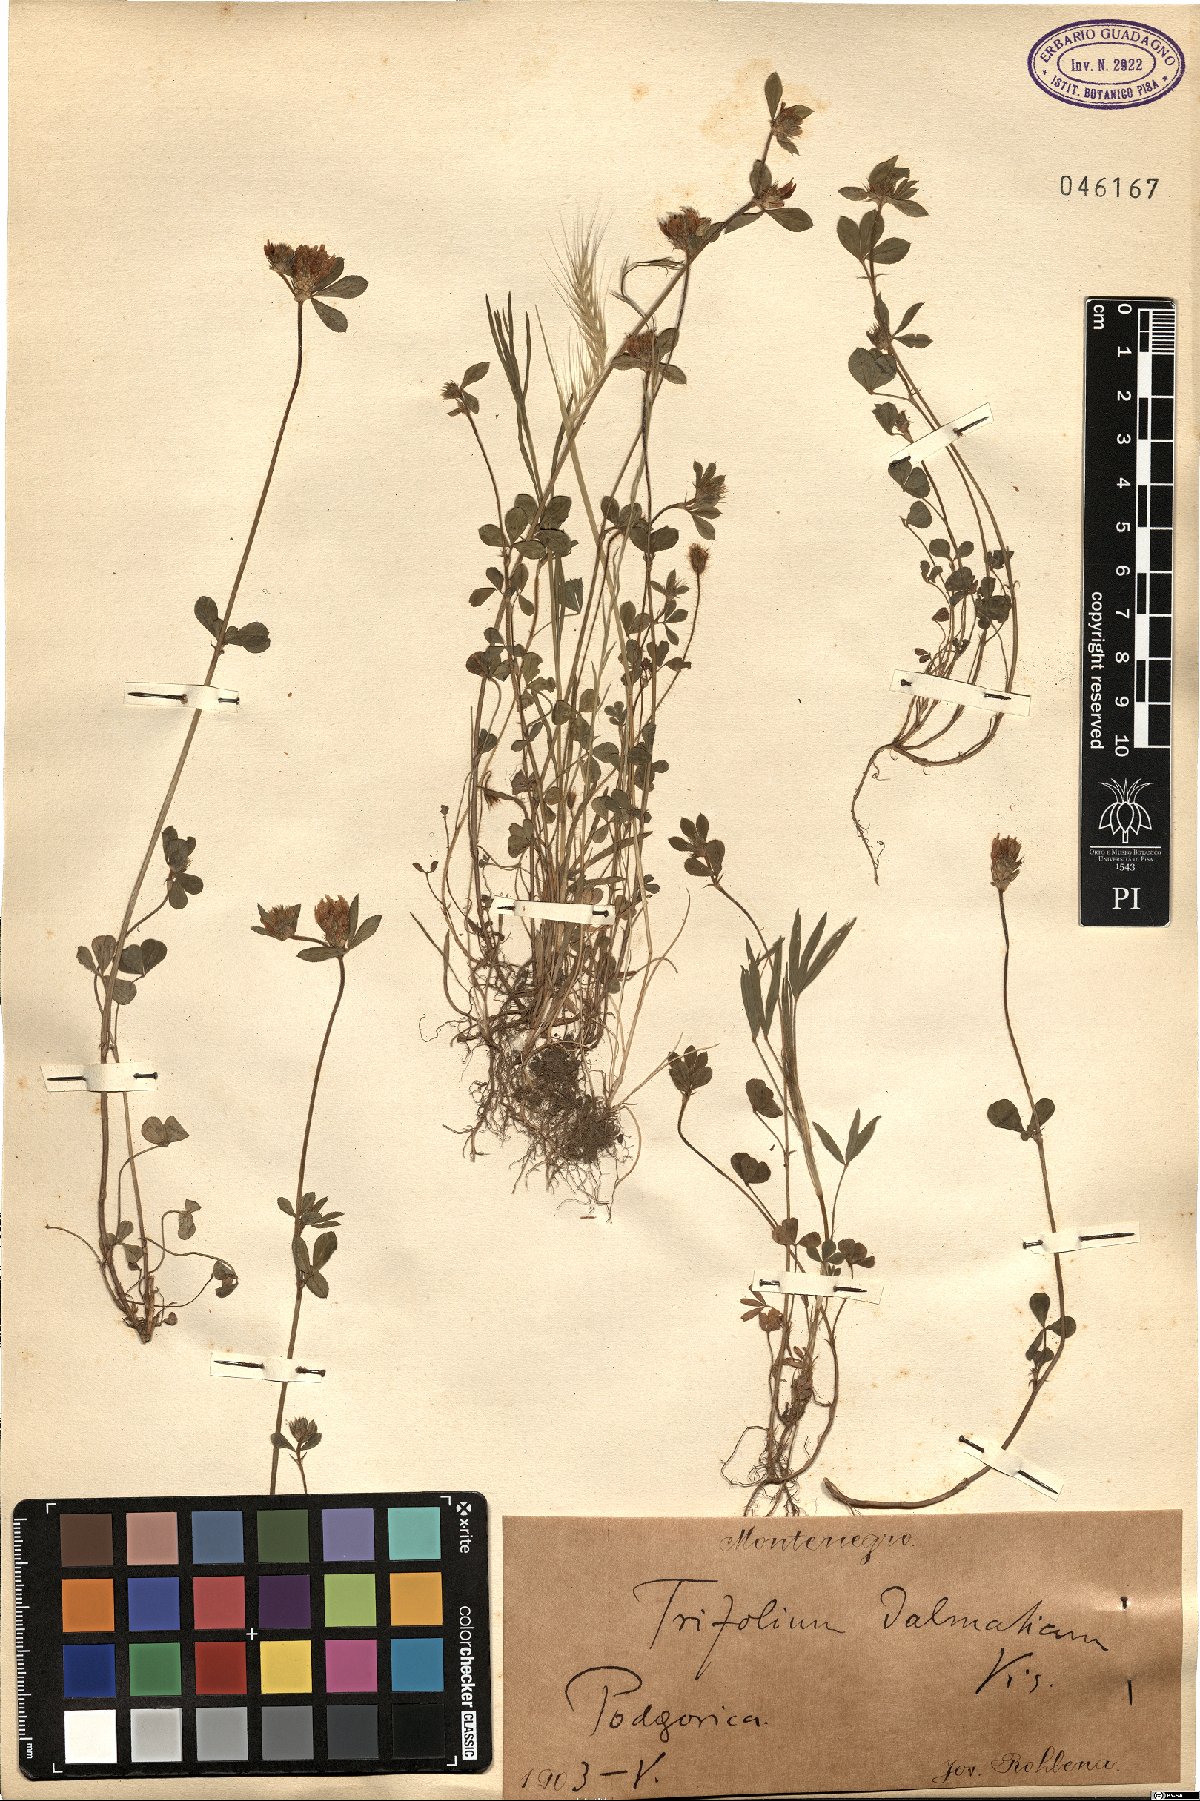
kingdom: Plantae
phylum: Tracheophyta
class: Magnoliopsida
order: Fabales
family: Fabaceae
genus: Trifolium
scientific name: Trifolium dalmaticum
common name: Dalmatian clover
